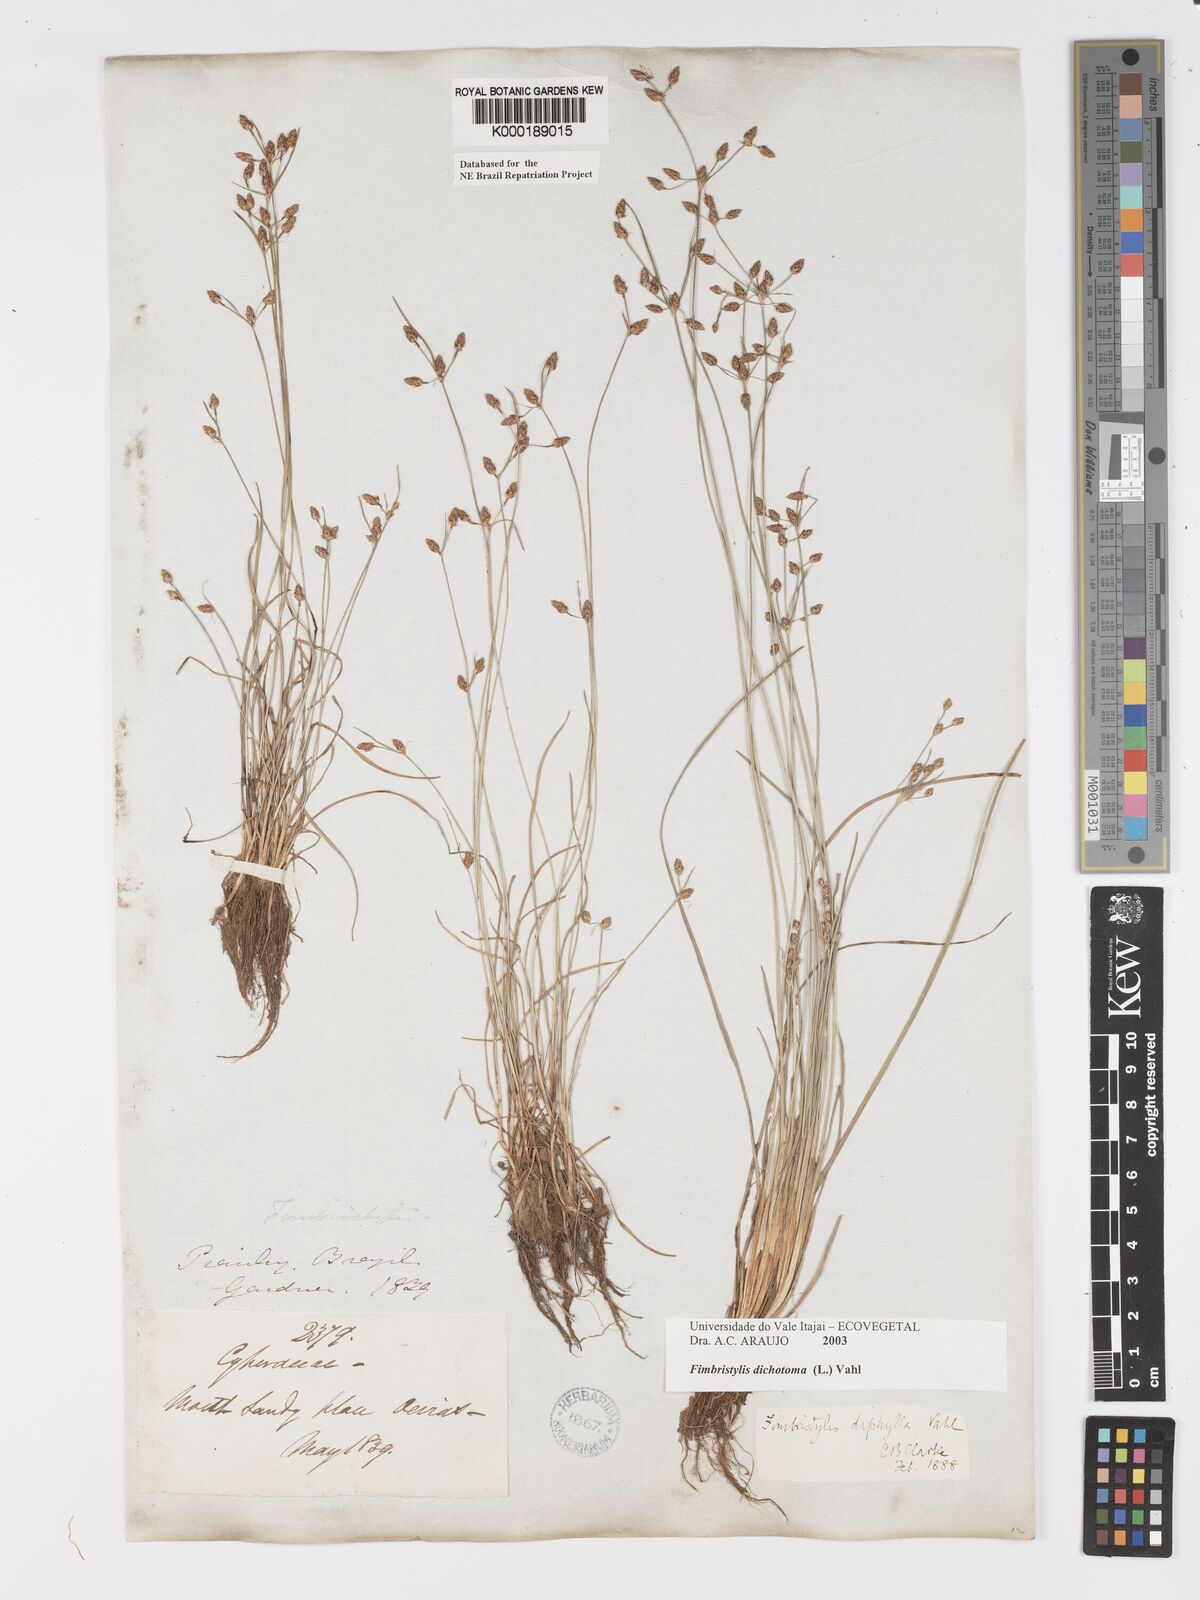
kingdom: Plantae
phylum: Tracheophyta
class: Liliopsida
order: Poales
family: Cyperaceae
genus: Fimbristylis
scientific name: Fimbristylis dichotoma
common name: Forked fimbry
